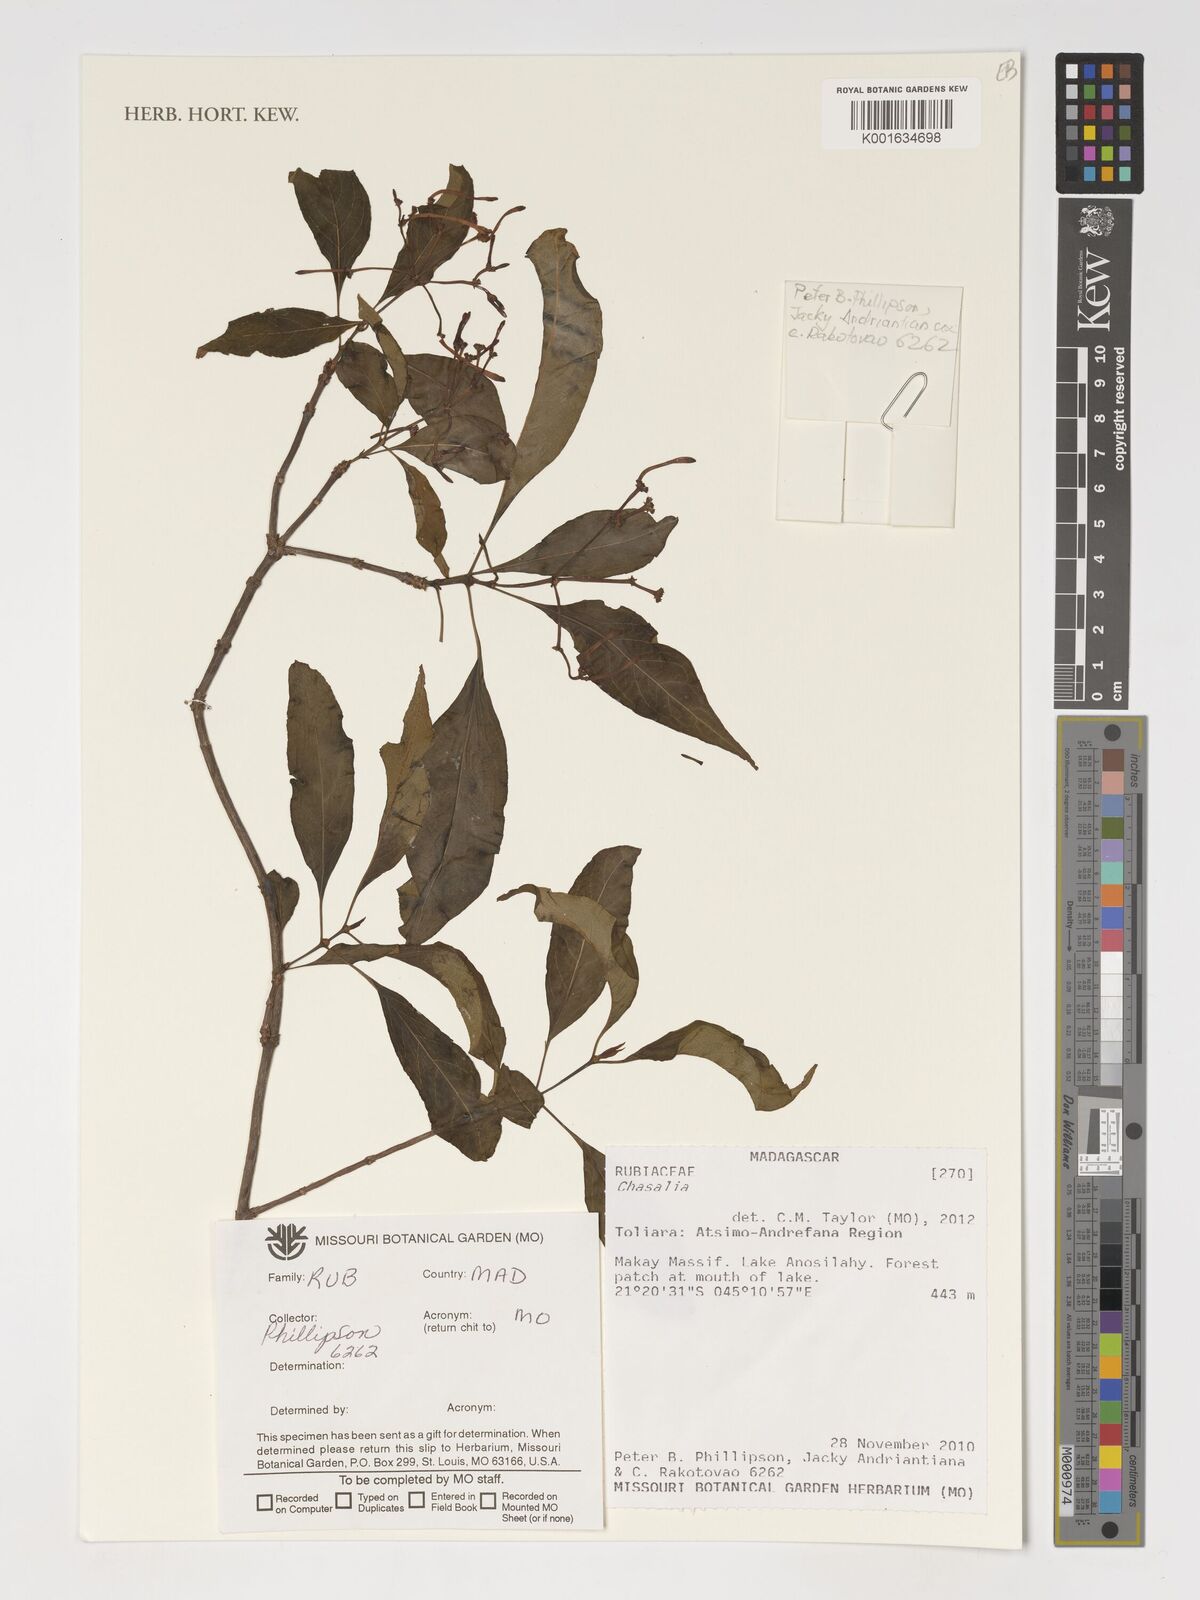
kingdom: Plantae
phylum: Tracheophyta
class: Magnoliopsida
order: Gentianales
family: Rubiaceae
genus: Chassalia
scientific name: Chassalia
